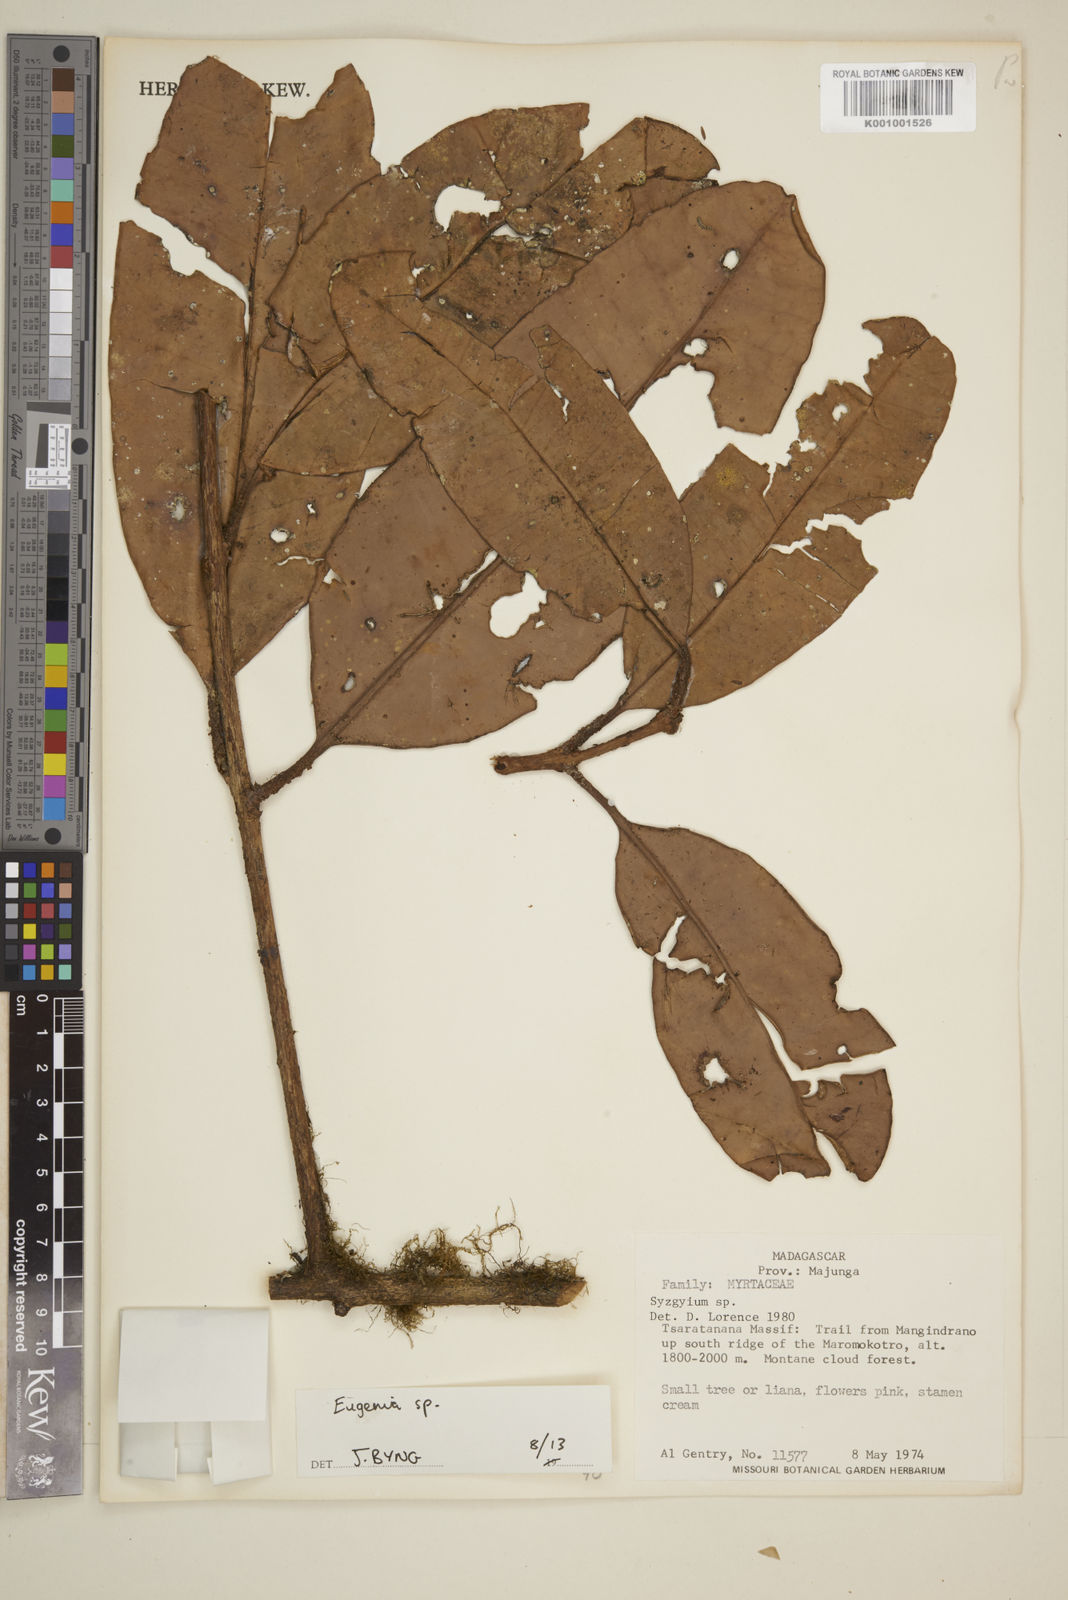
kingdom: Plantae
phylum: Tracheophyta
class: Magnoliopsida
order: Myrtales
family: Myrtaceae
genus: Eugenia
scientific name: Eugenia
